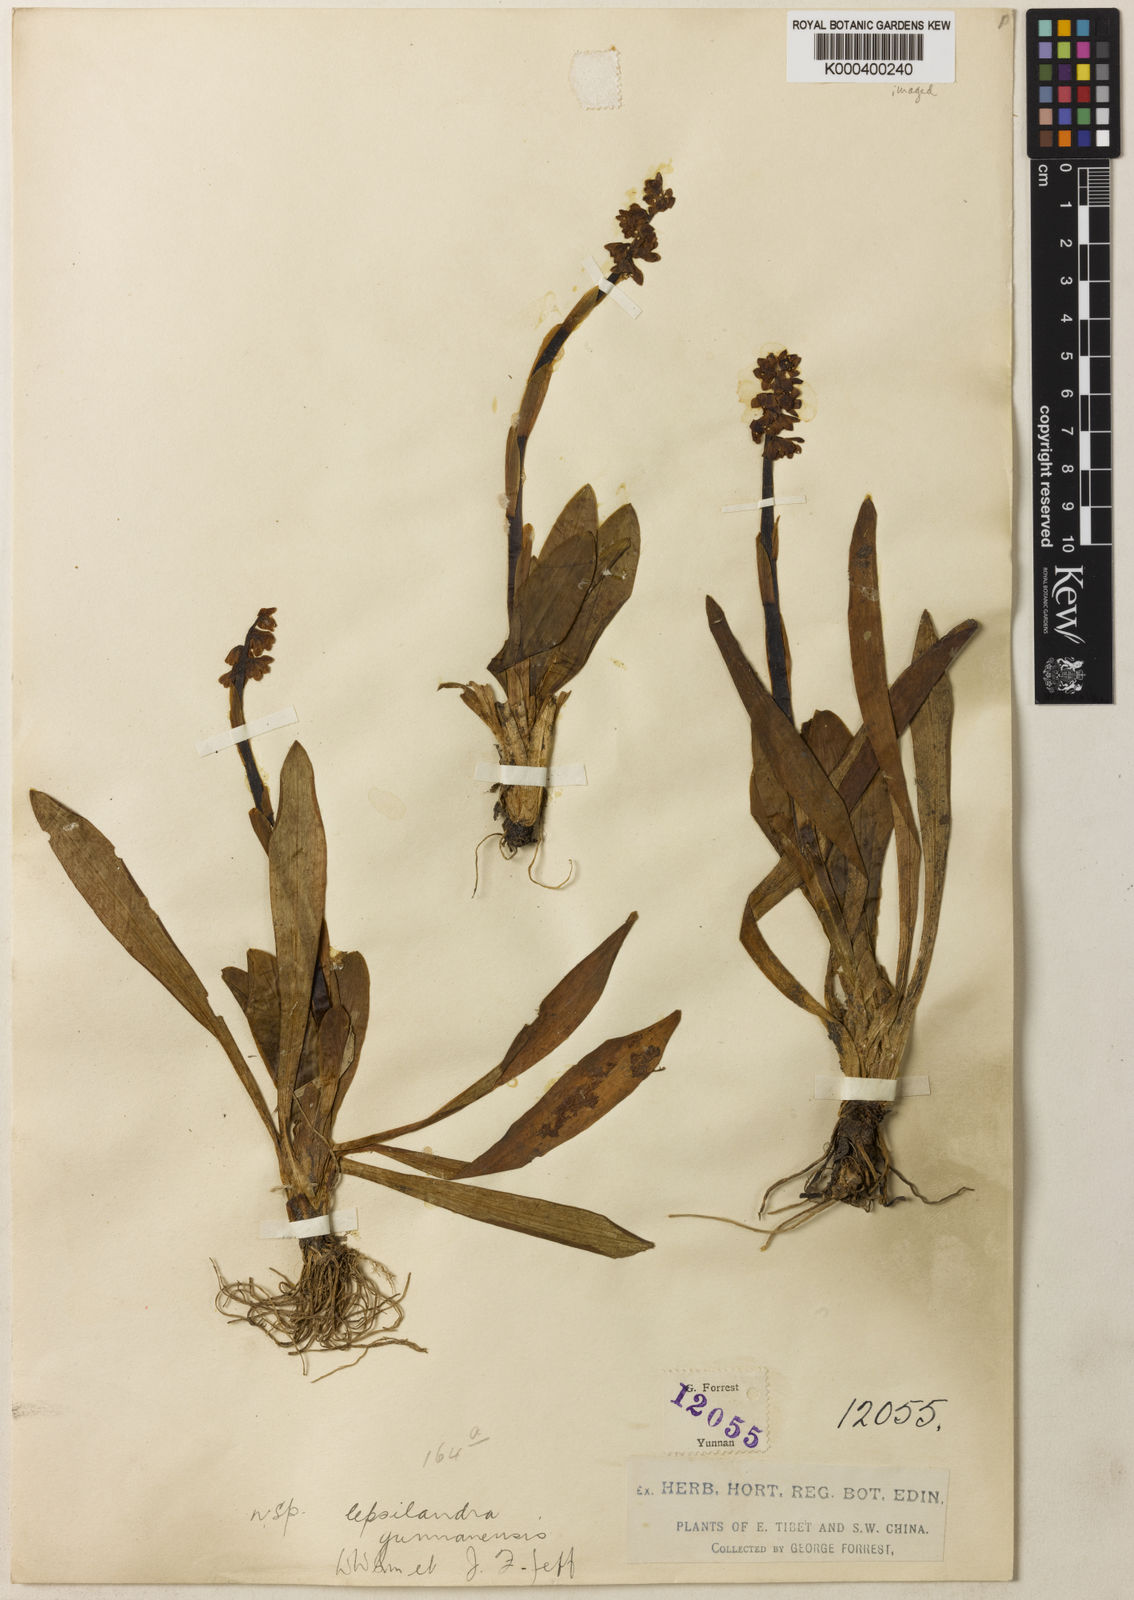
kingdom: Plantae
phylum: Tracheophyta
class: Liliopsida
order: Liliales
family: Melanthiaceae
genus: Helonias
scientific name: Helonias yunnanensis
